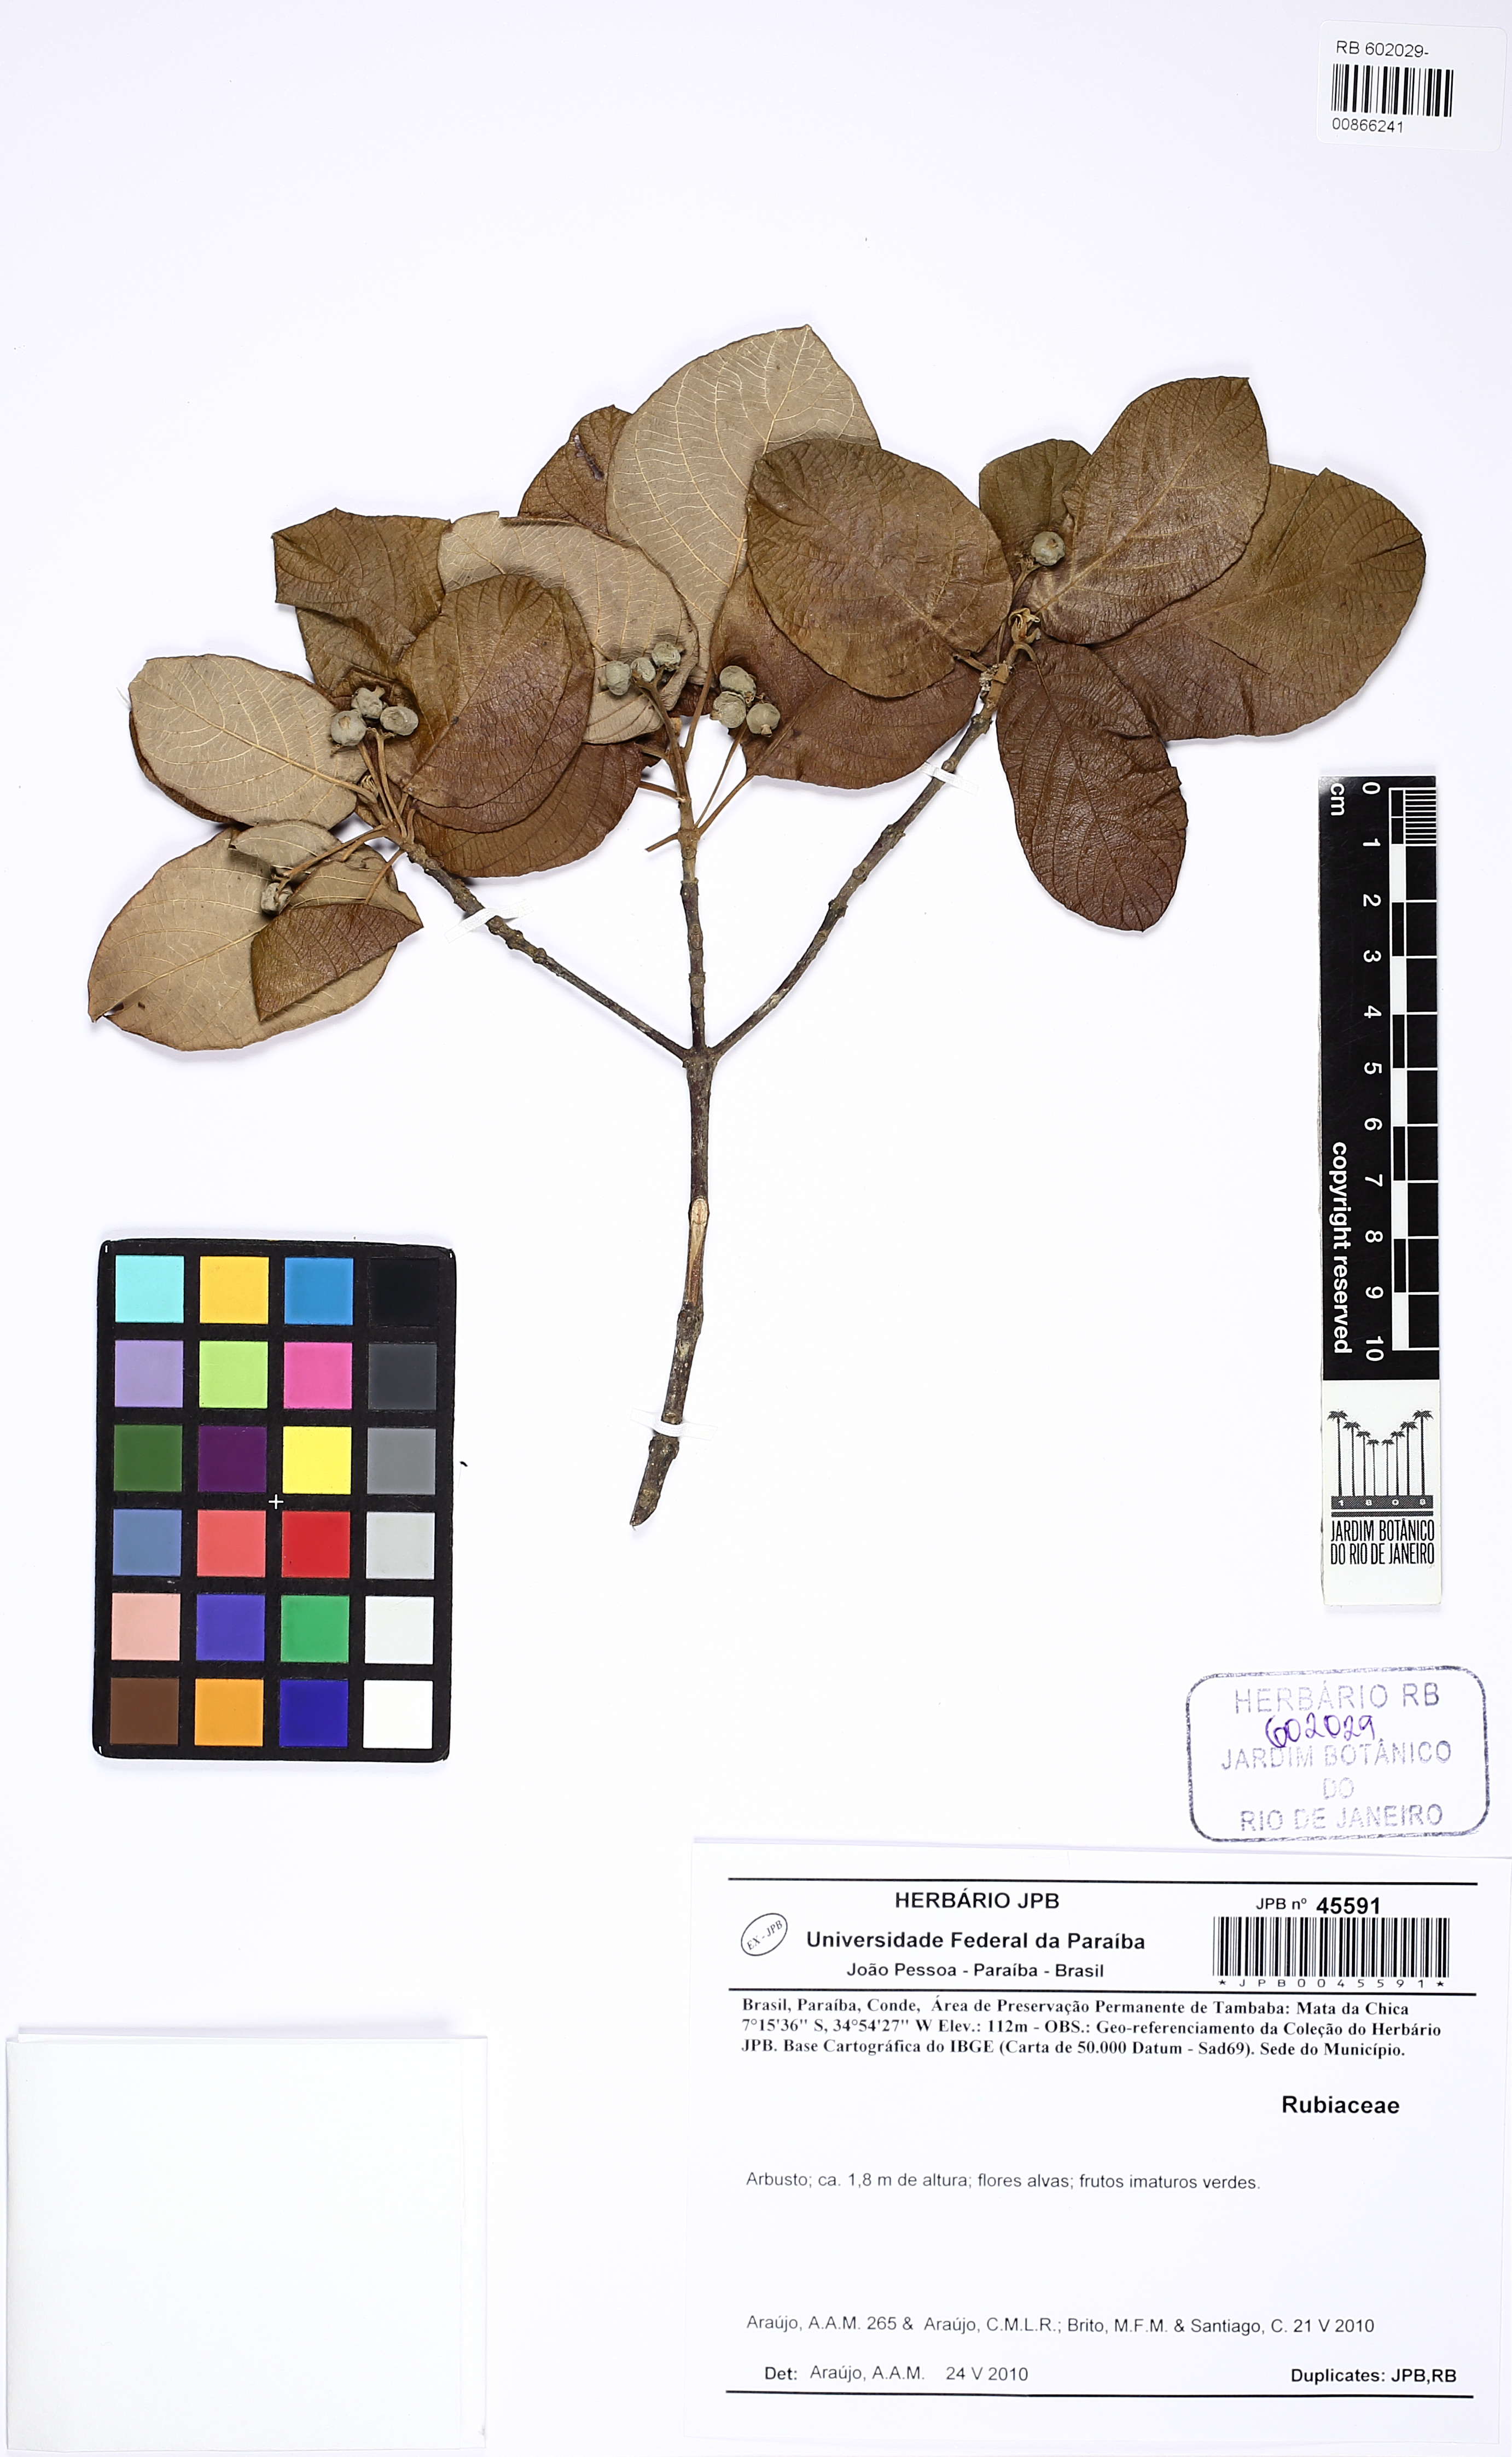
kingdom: Plantae
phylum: Tracheophyta
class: Magnoliopsida
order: Gentianales
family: Rubiaceae
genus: Guettarda
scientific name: Guettarda platypoda
